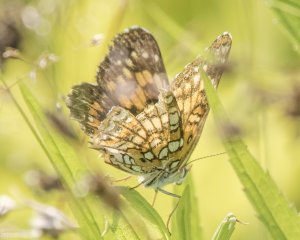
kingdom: Animalia
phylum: Arthropoda
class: Insecta
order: Lepidoptera
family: Nymphalidae
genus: Chlosyne
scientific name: Chlosyne harrisii
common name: Harris's Checkerspot
